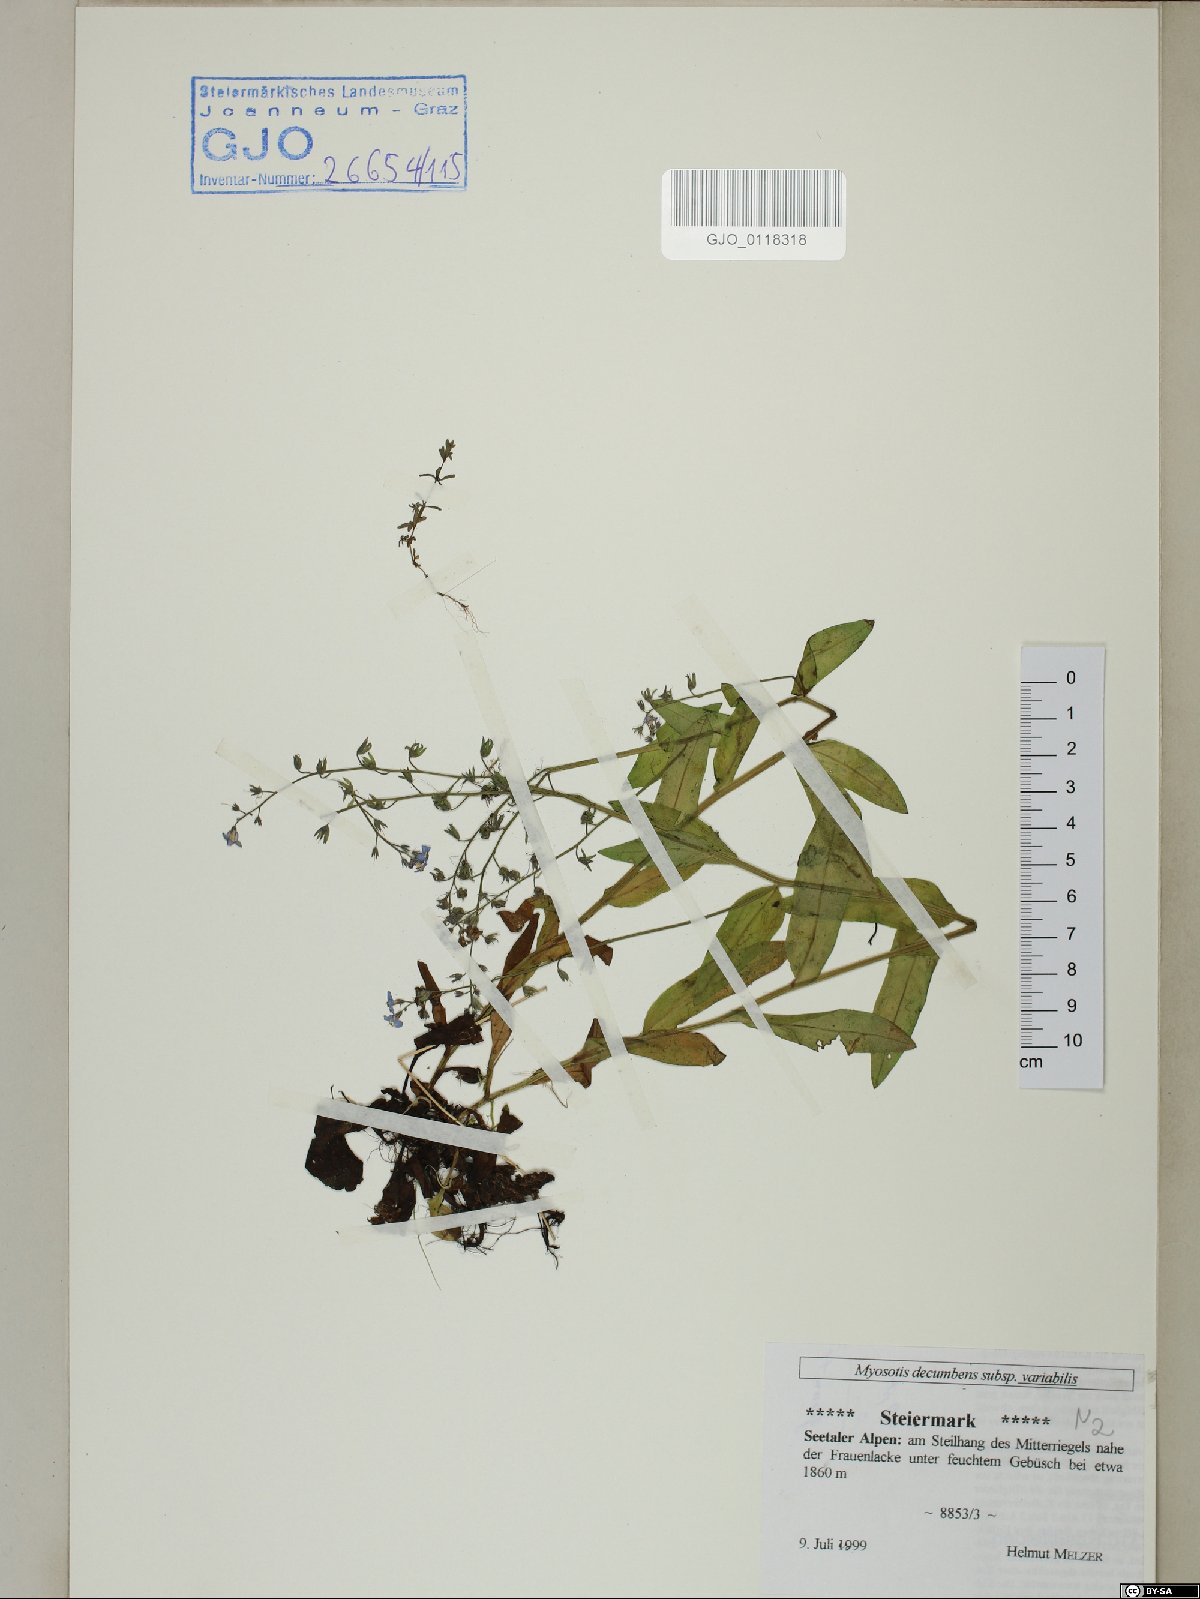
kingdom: Plantae
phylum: Tracheophyta
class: Magnoliopsida
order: Boraginales
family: Boraginaceae
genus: Myosotis
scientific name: Myosotis decumbens
